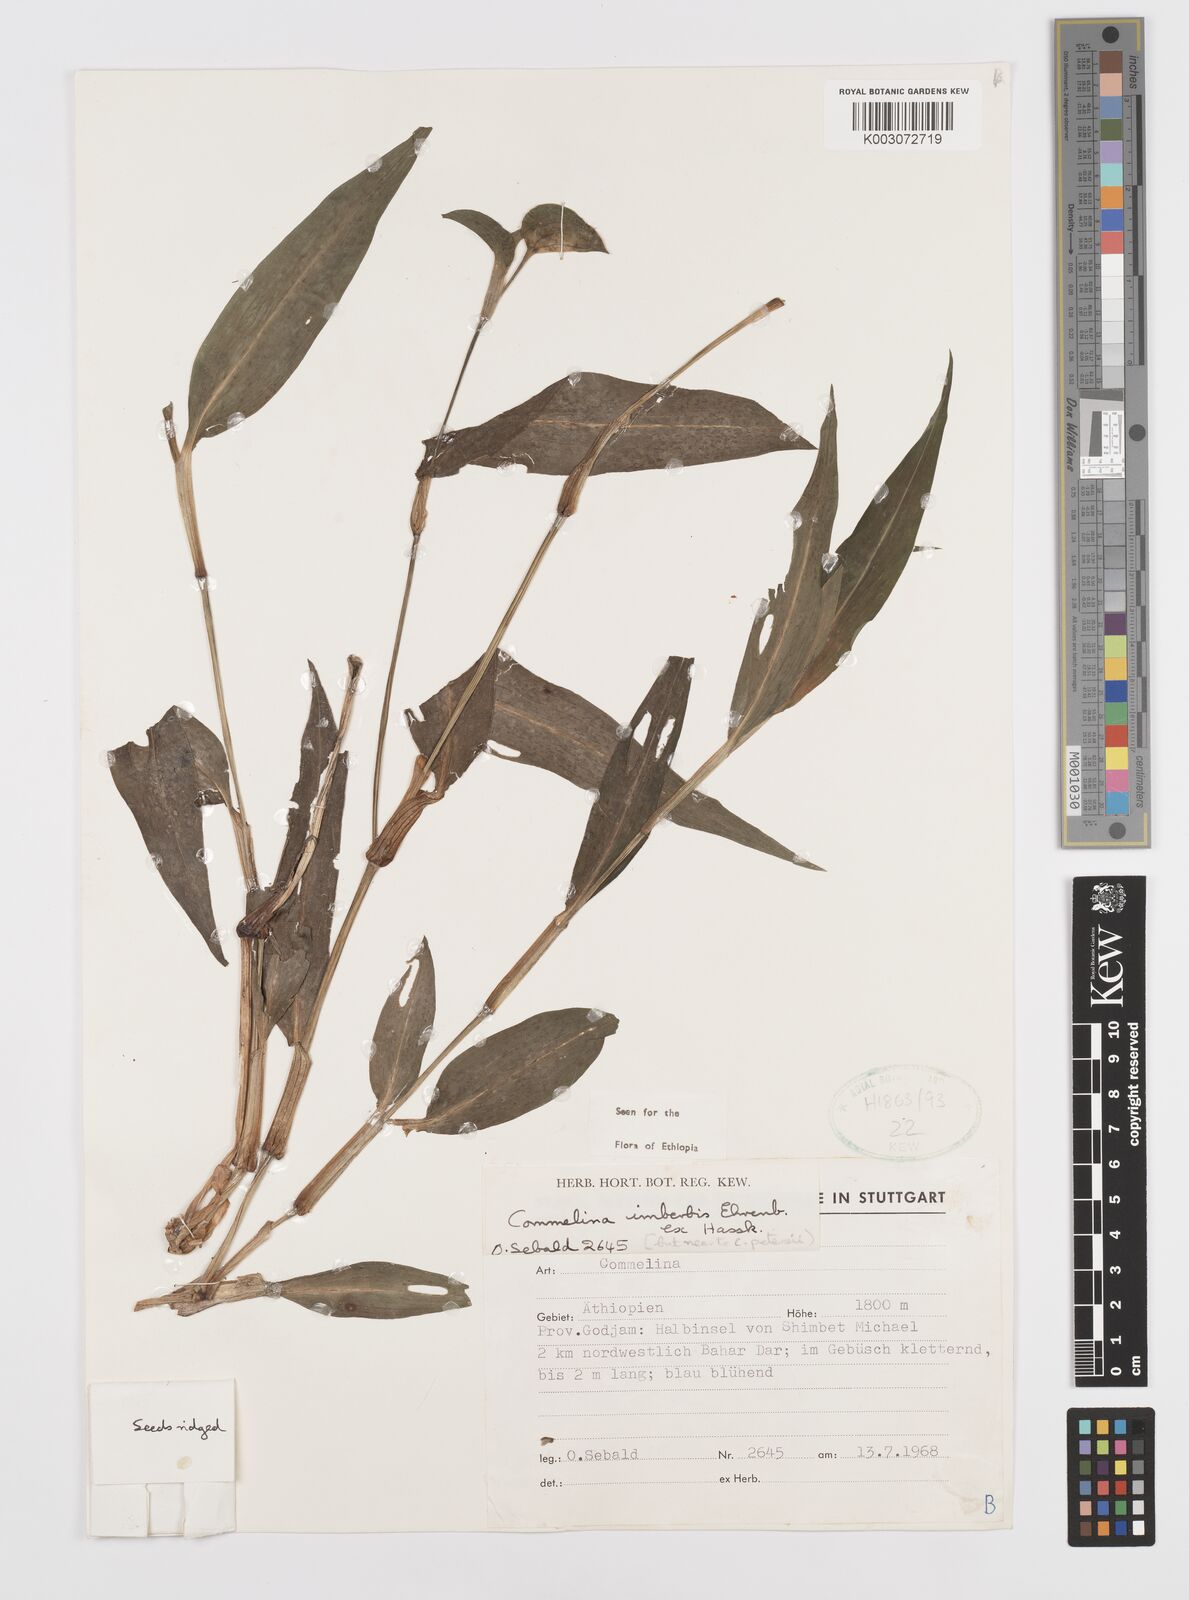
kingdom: Plantae
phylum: Tracheophyta
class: Liliopsida
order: Commelinales
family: Commelinaceae
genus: Commelina
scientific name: Commelina imberbis
